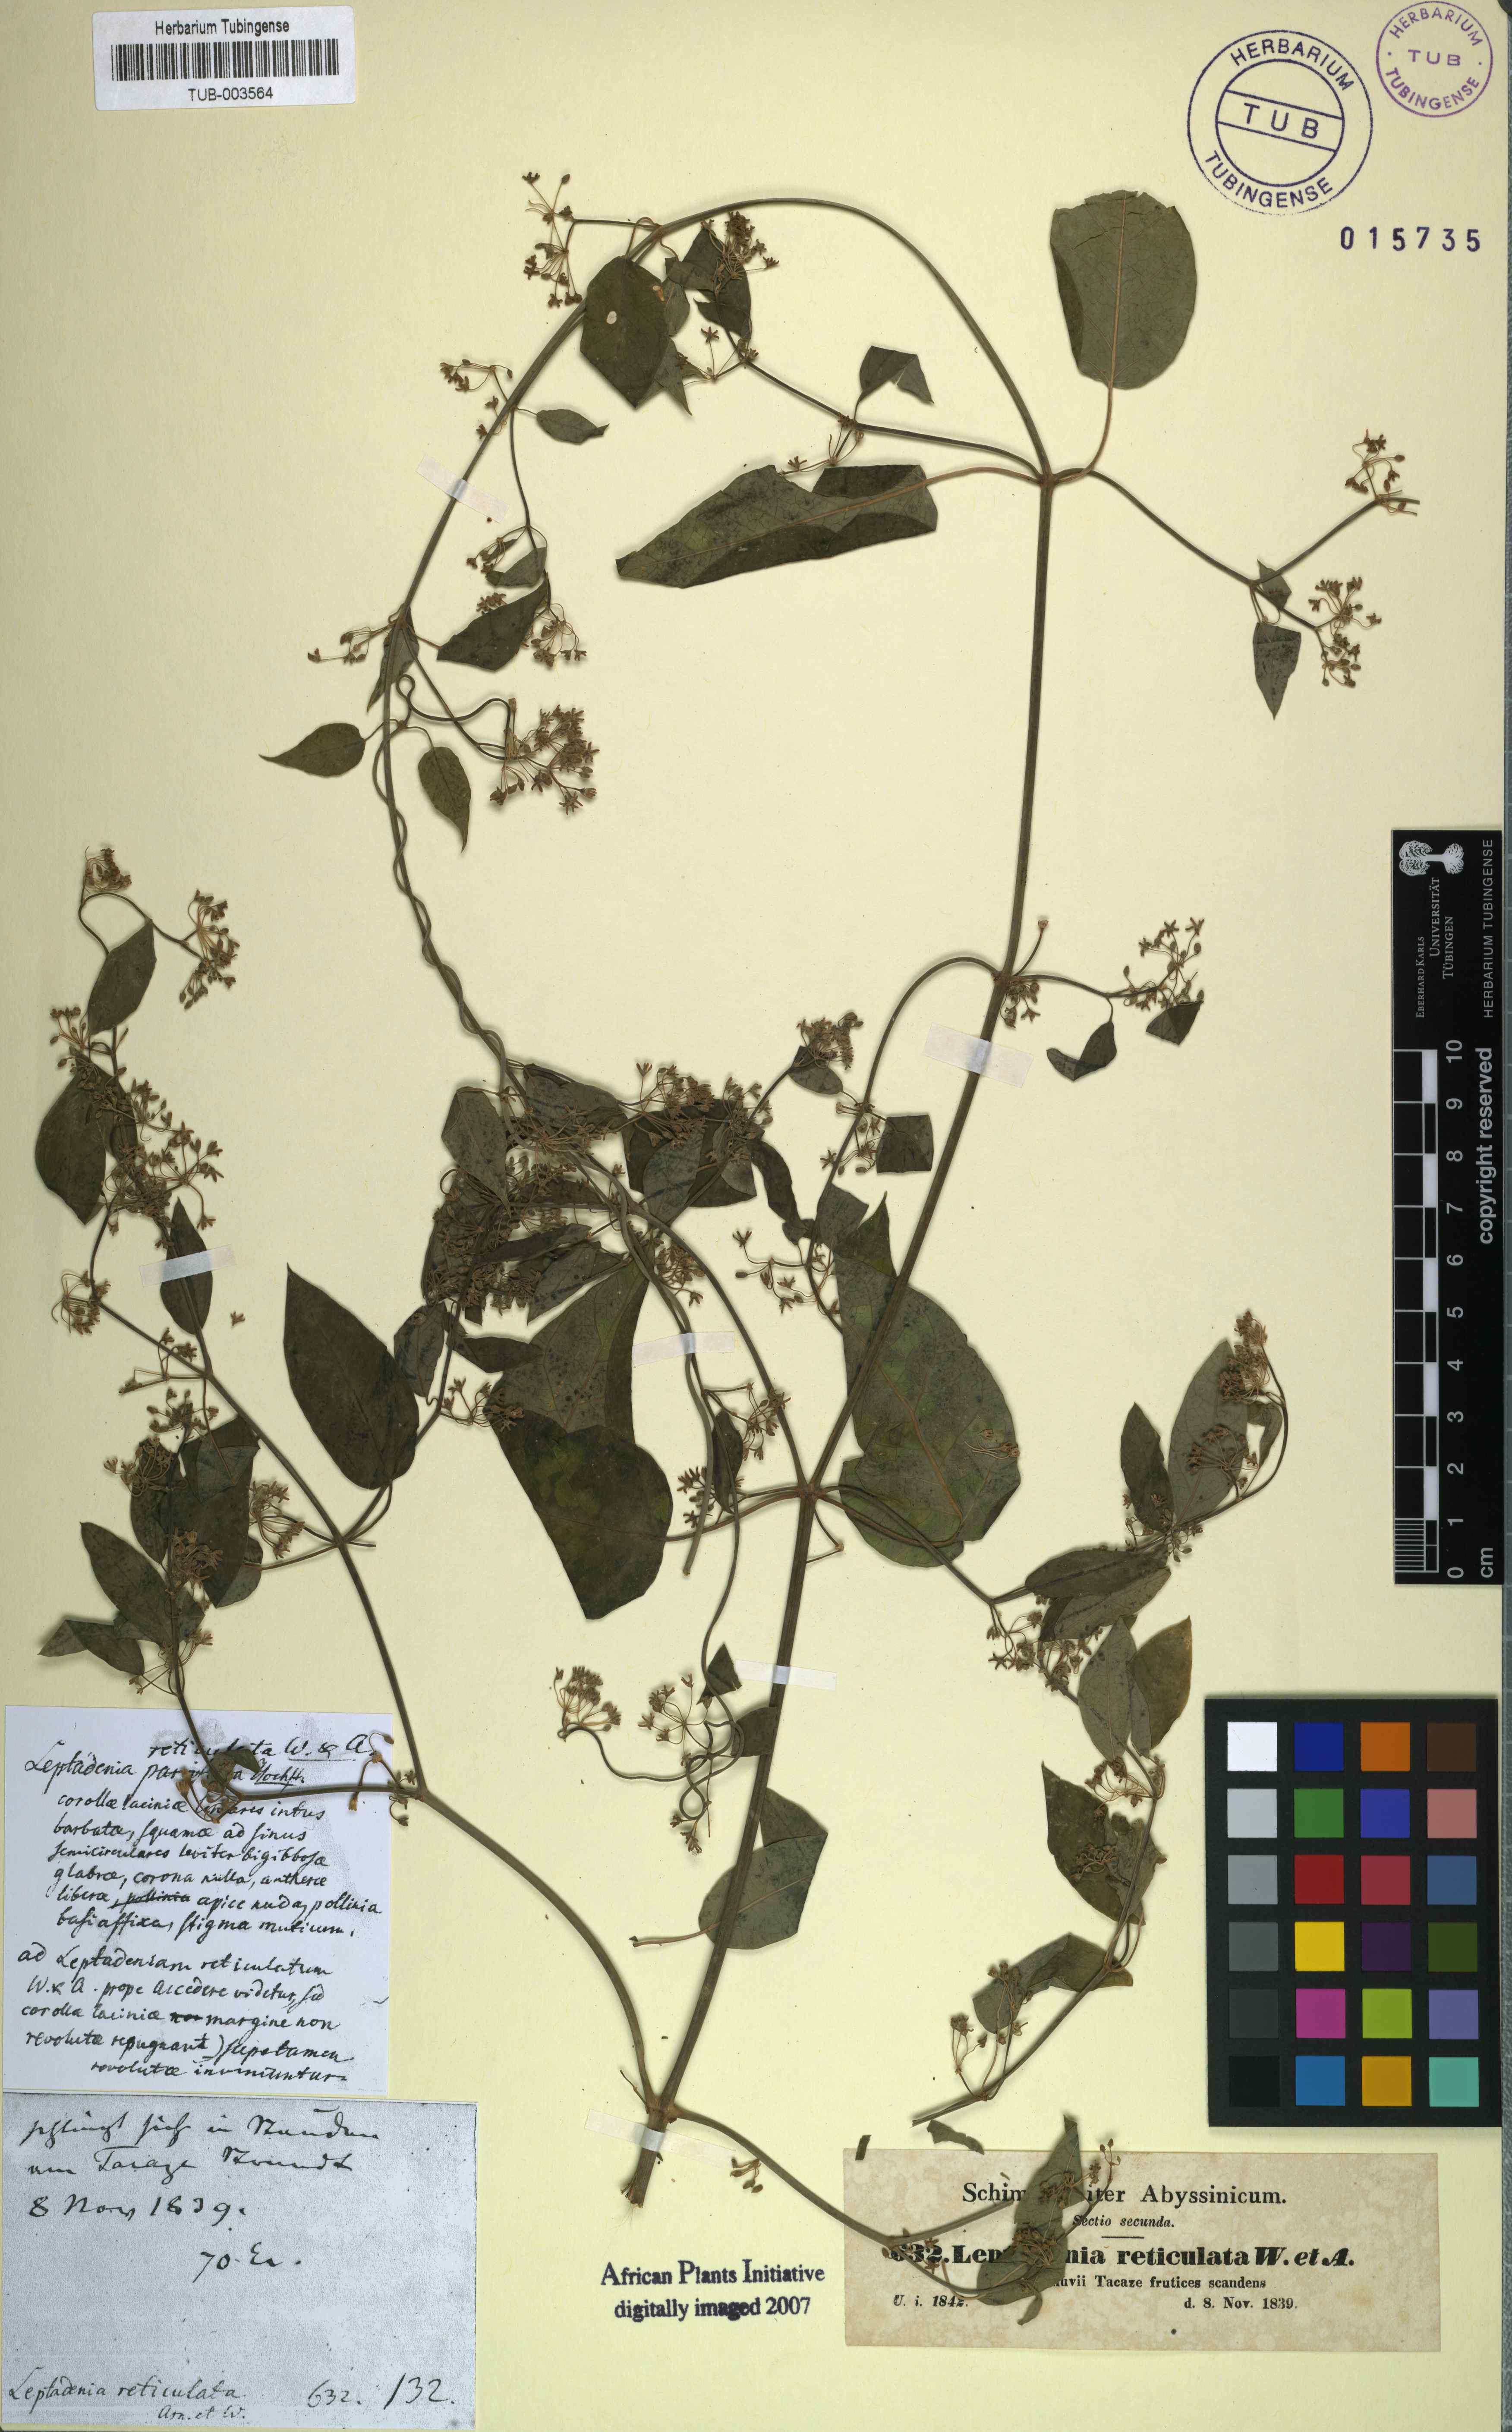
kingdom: Plantae
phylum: Tracheophyta
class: Magnoliopsida
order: Gentianales
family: Apocynaceae
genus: Leptadenia
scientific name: Leptadenia arborea
